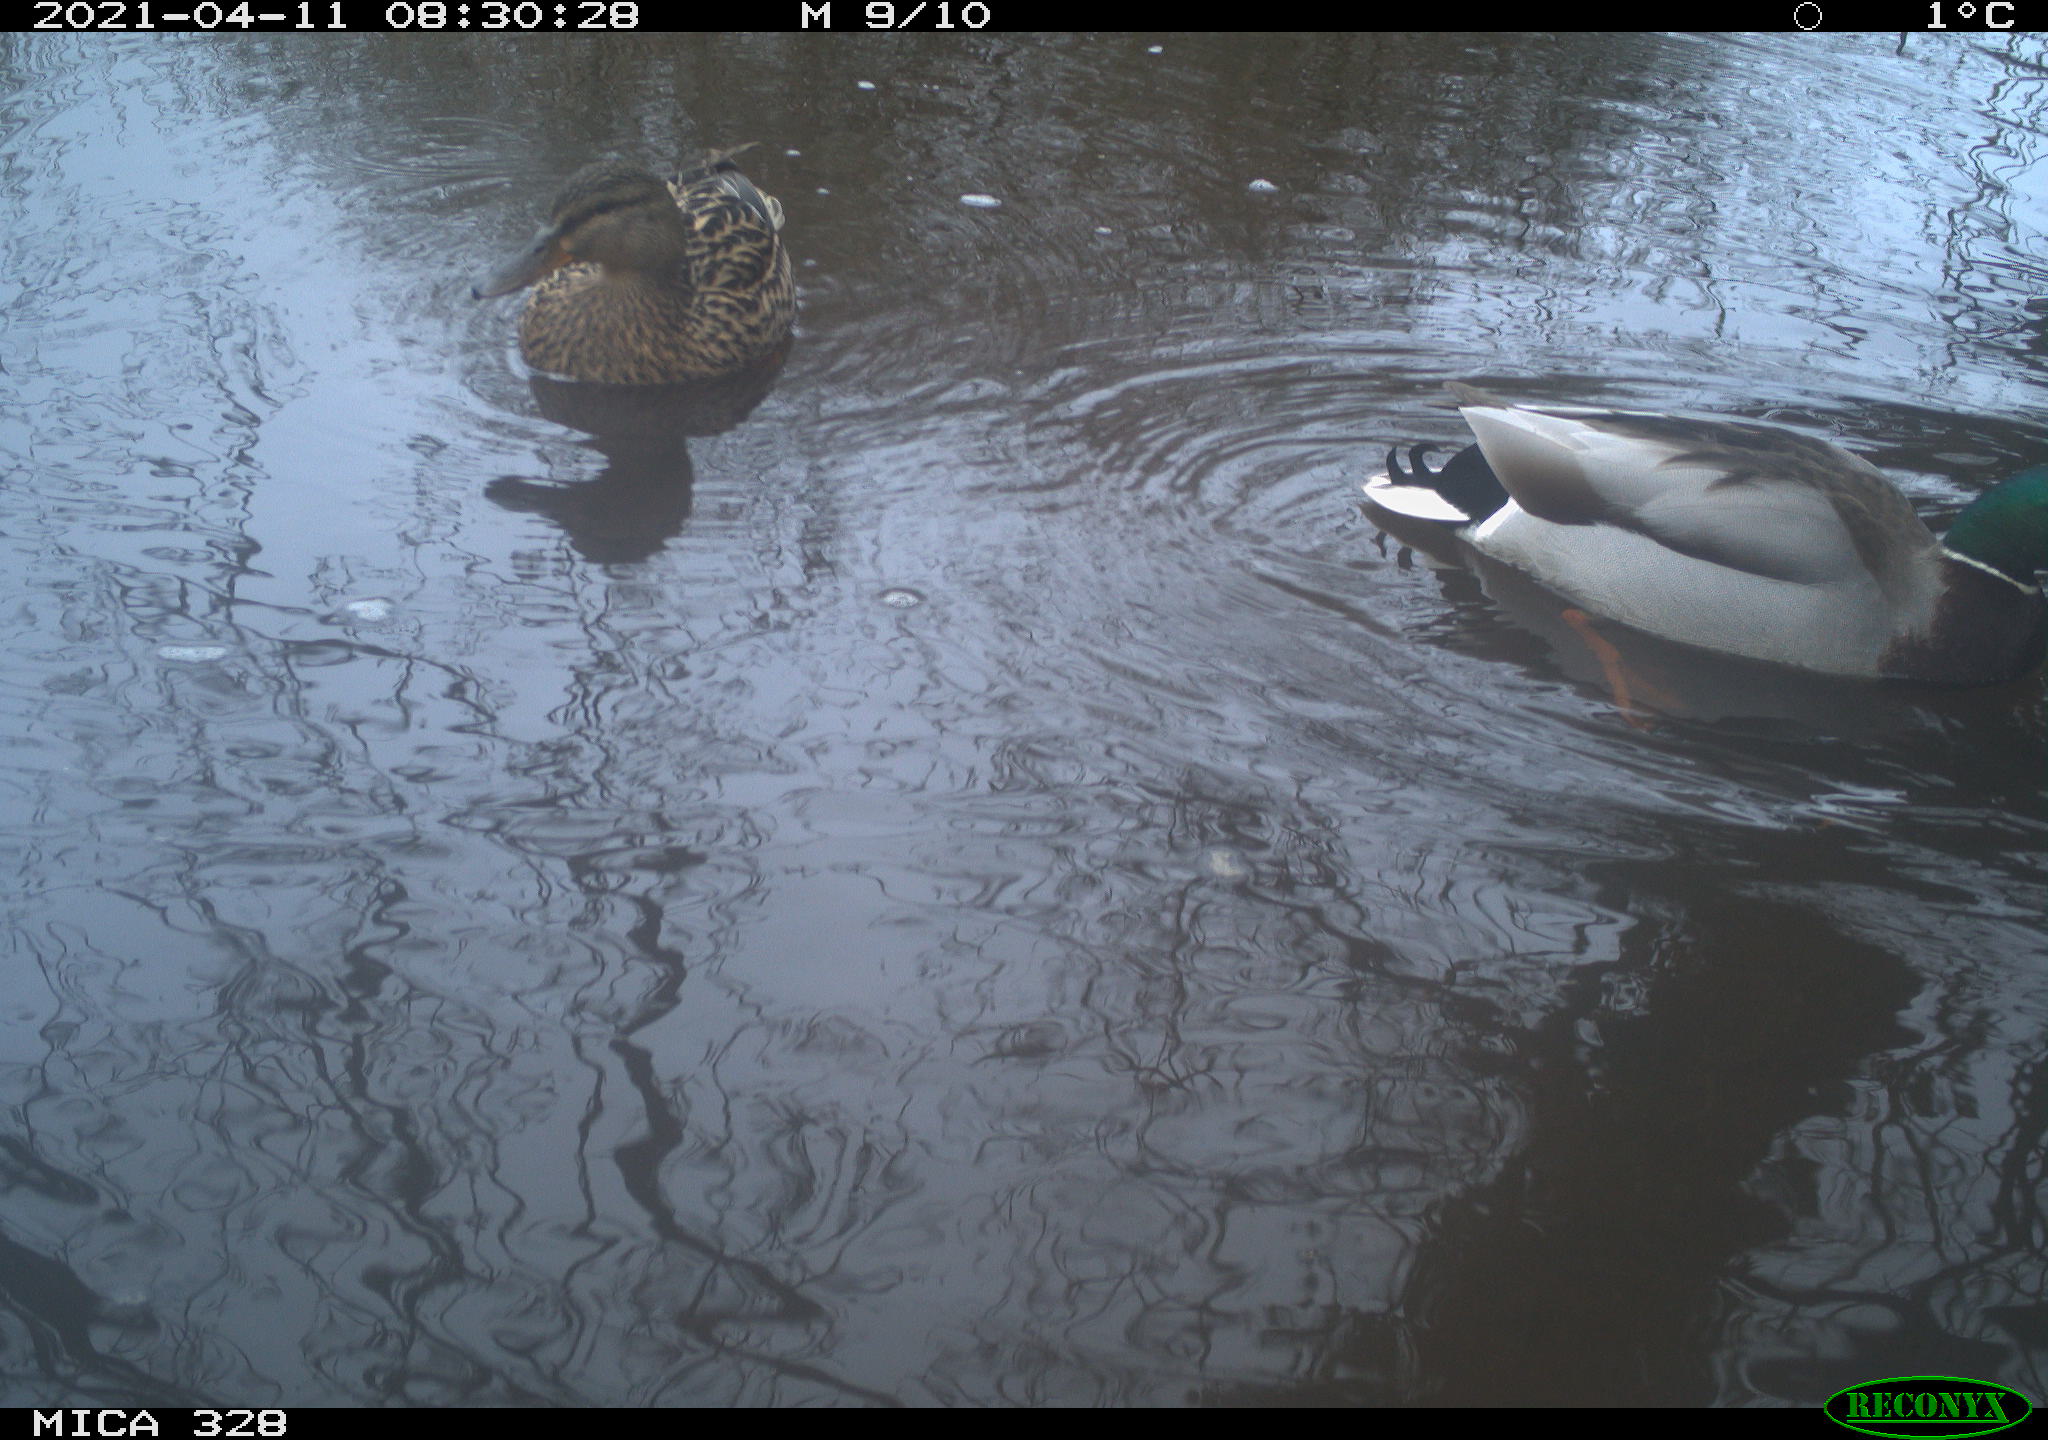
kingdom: Animalia
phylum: Chordata
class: Aves
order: Anseriformes
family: Anatidae
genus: Anas
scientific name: Anas platyrhynchos
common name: Mallard
